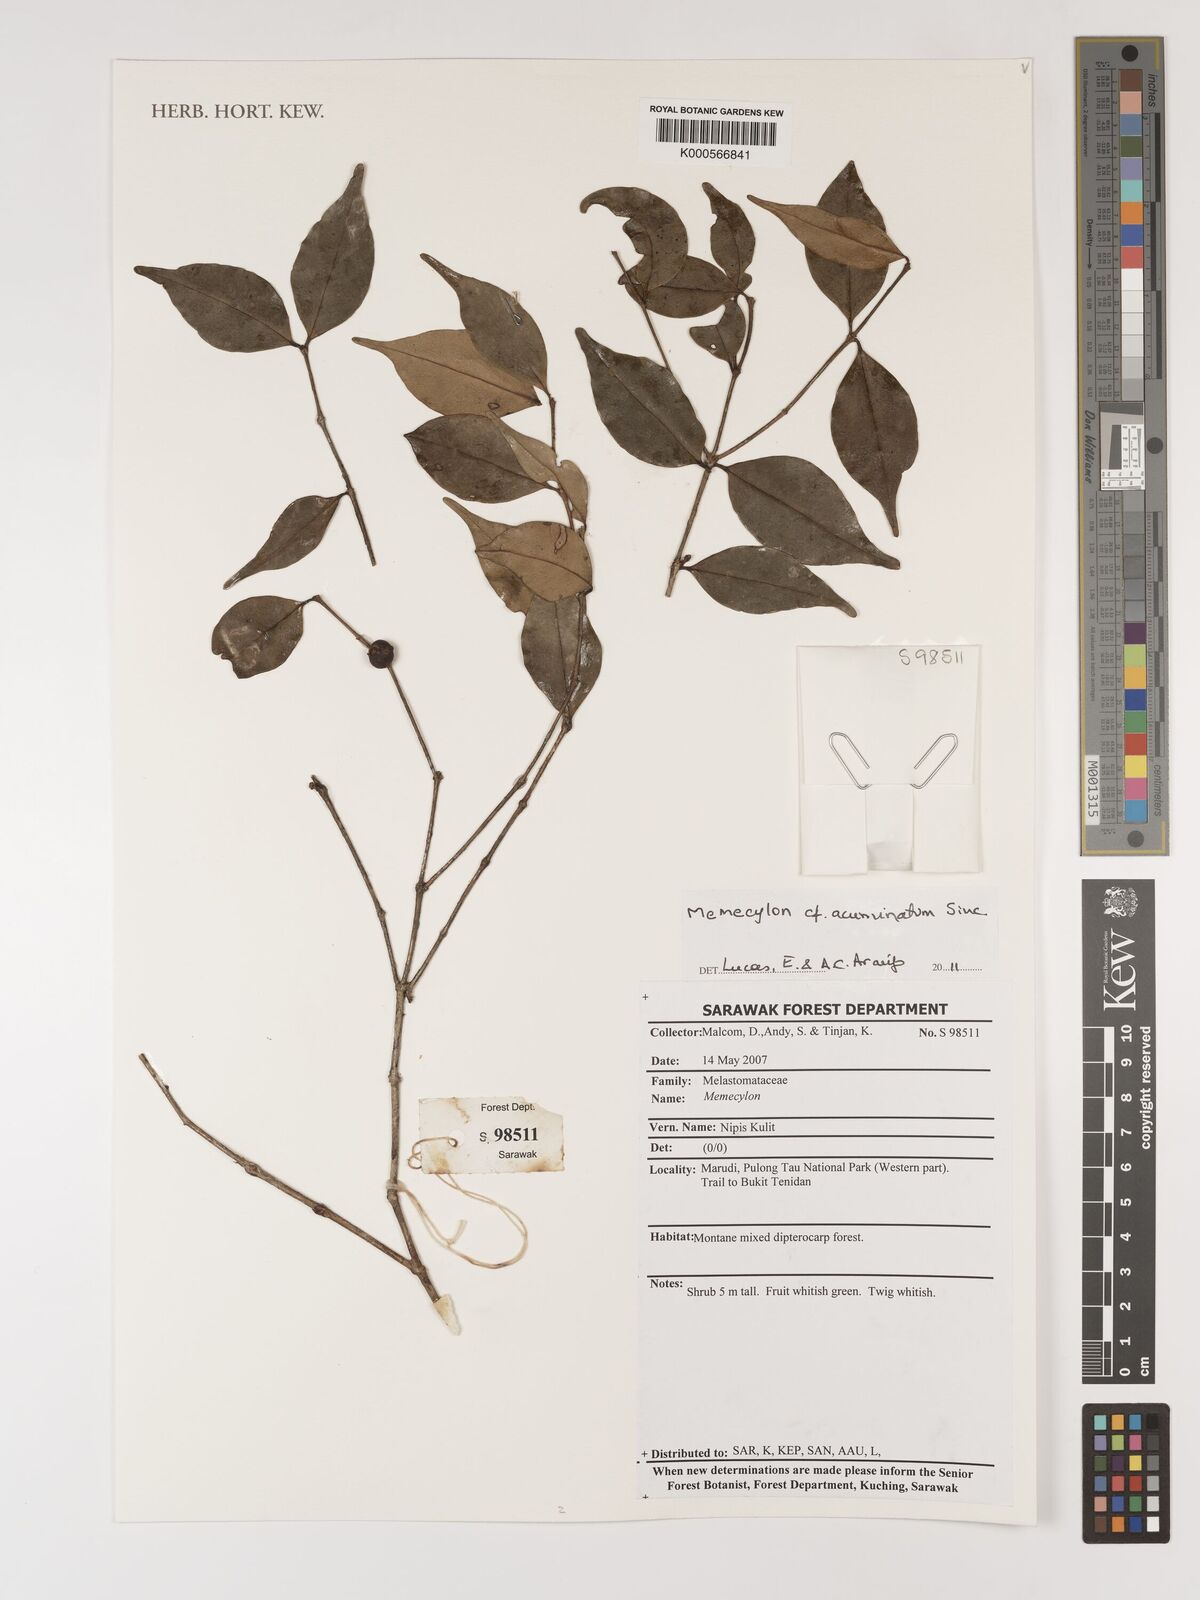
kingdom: Plantae
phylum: Tracheophyta
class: Magnoliopsida
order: Myrtales
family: Melastomataceae
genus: Memecylon
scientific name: Memecylon
